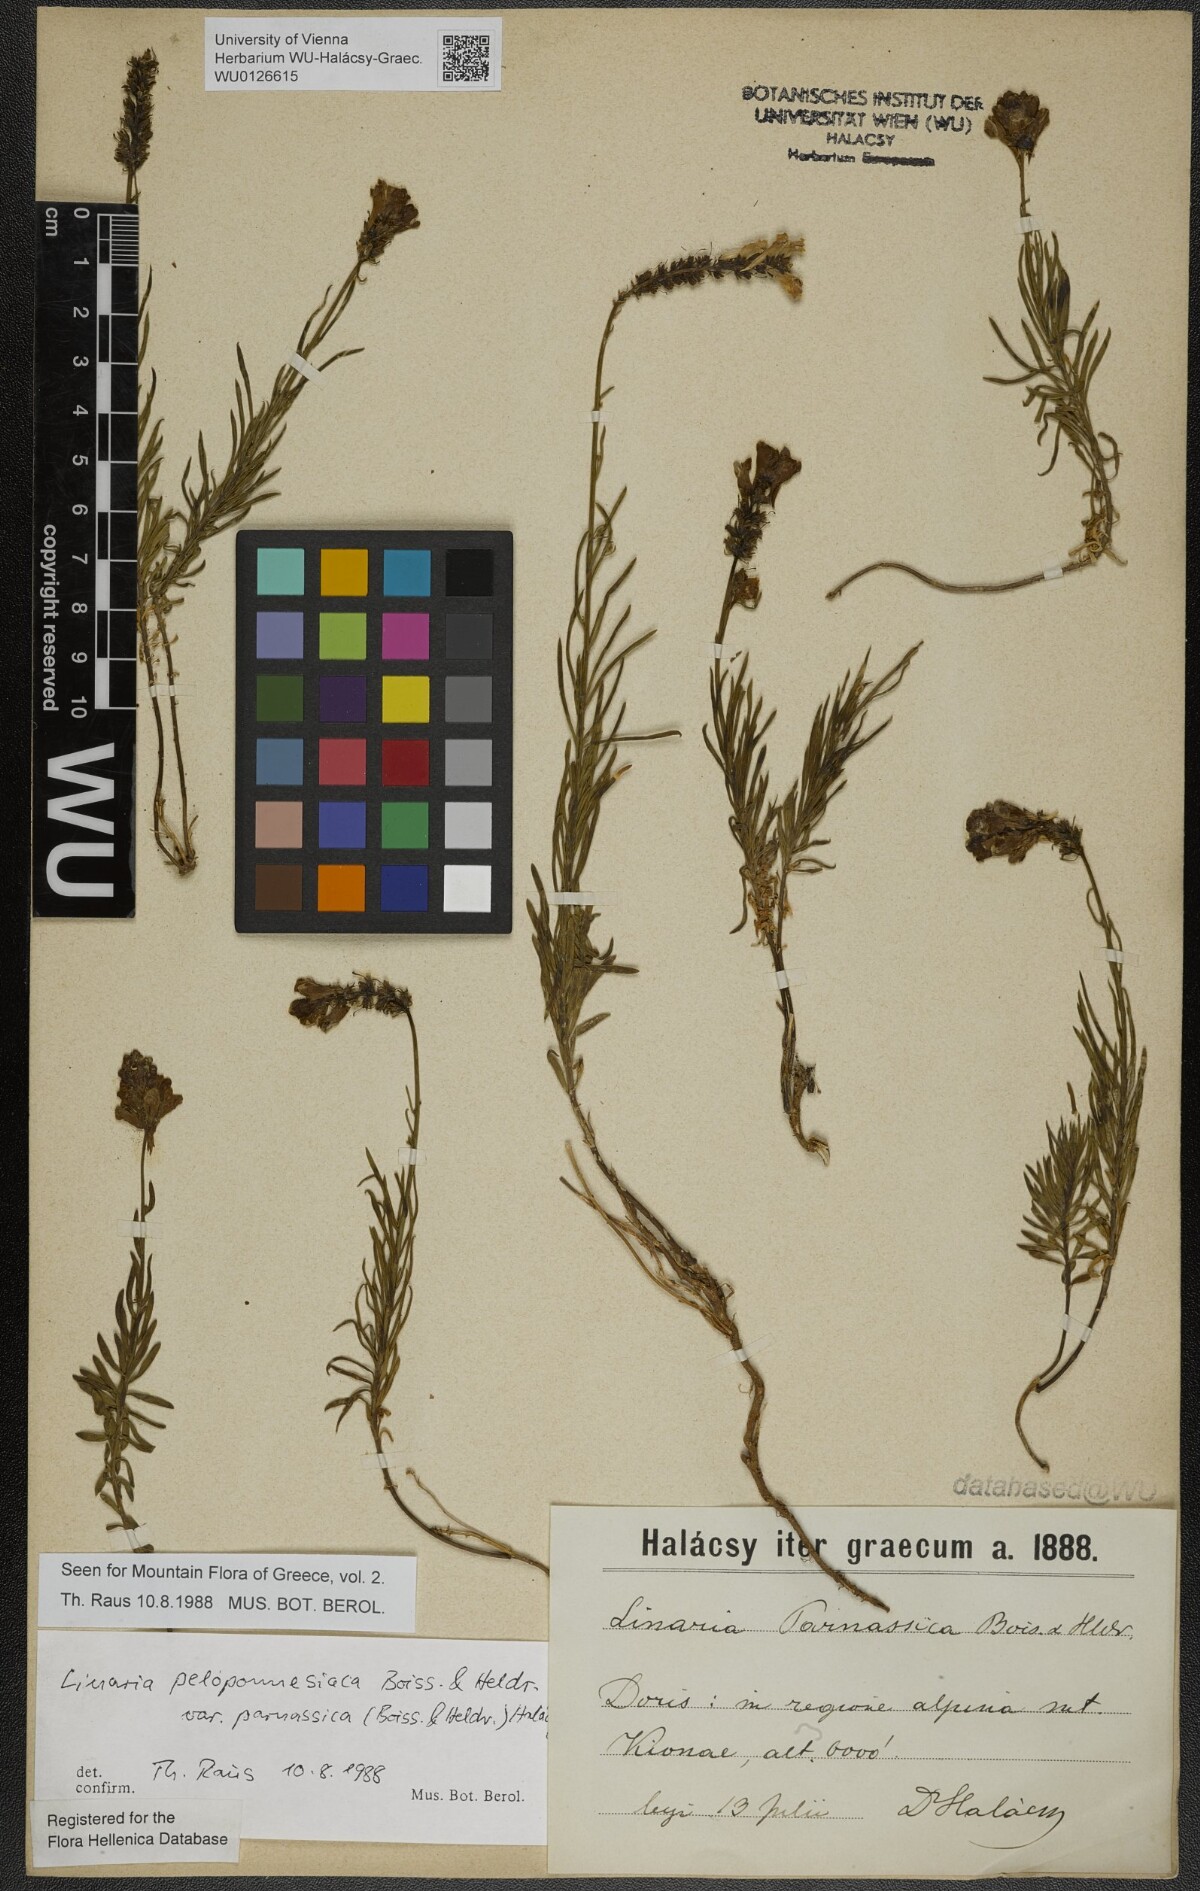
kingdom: Plantae
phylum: Tracheophyta
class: Magnoliopsida
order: Lamiales
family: Plantaginaceae
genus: Linaria
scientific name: Linaria peloponnesiaca
